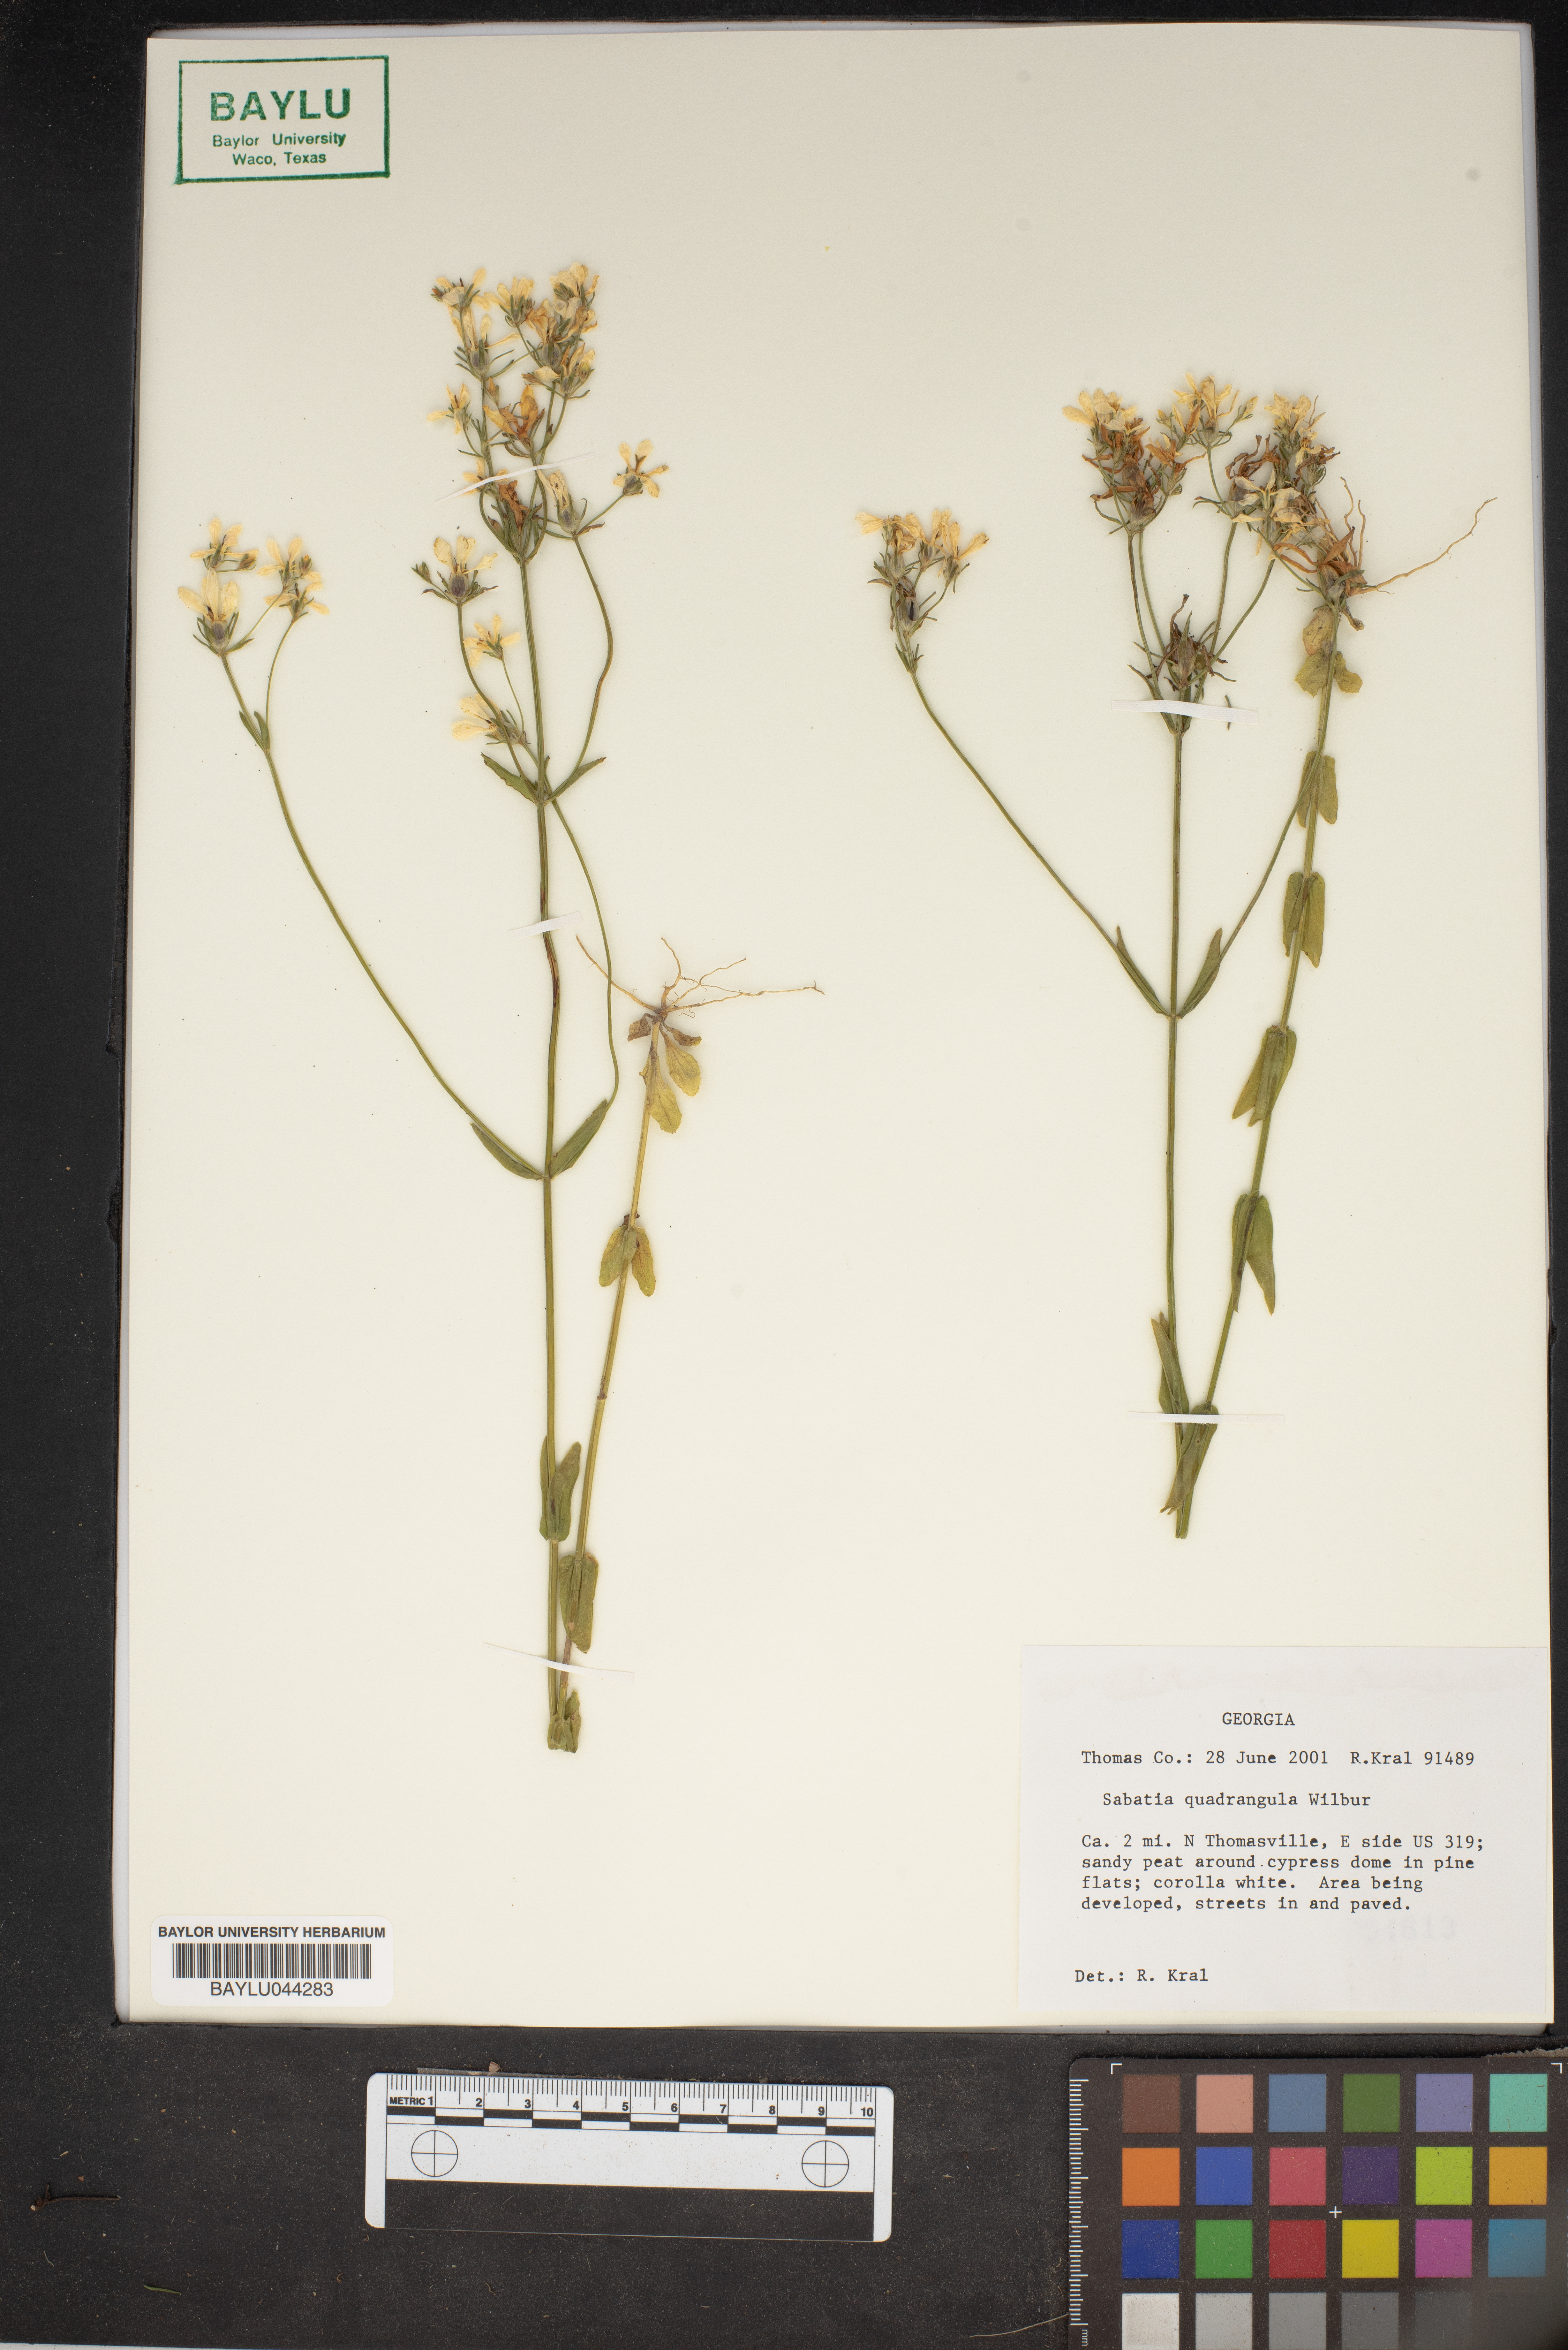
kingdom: Plantae
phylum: Tracheophyta
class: Magnoliopsida
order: Gentianales
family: Gentianaceae
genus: Sabatia
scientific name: Sabatia quadrangula
